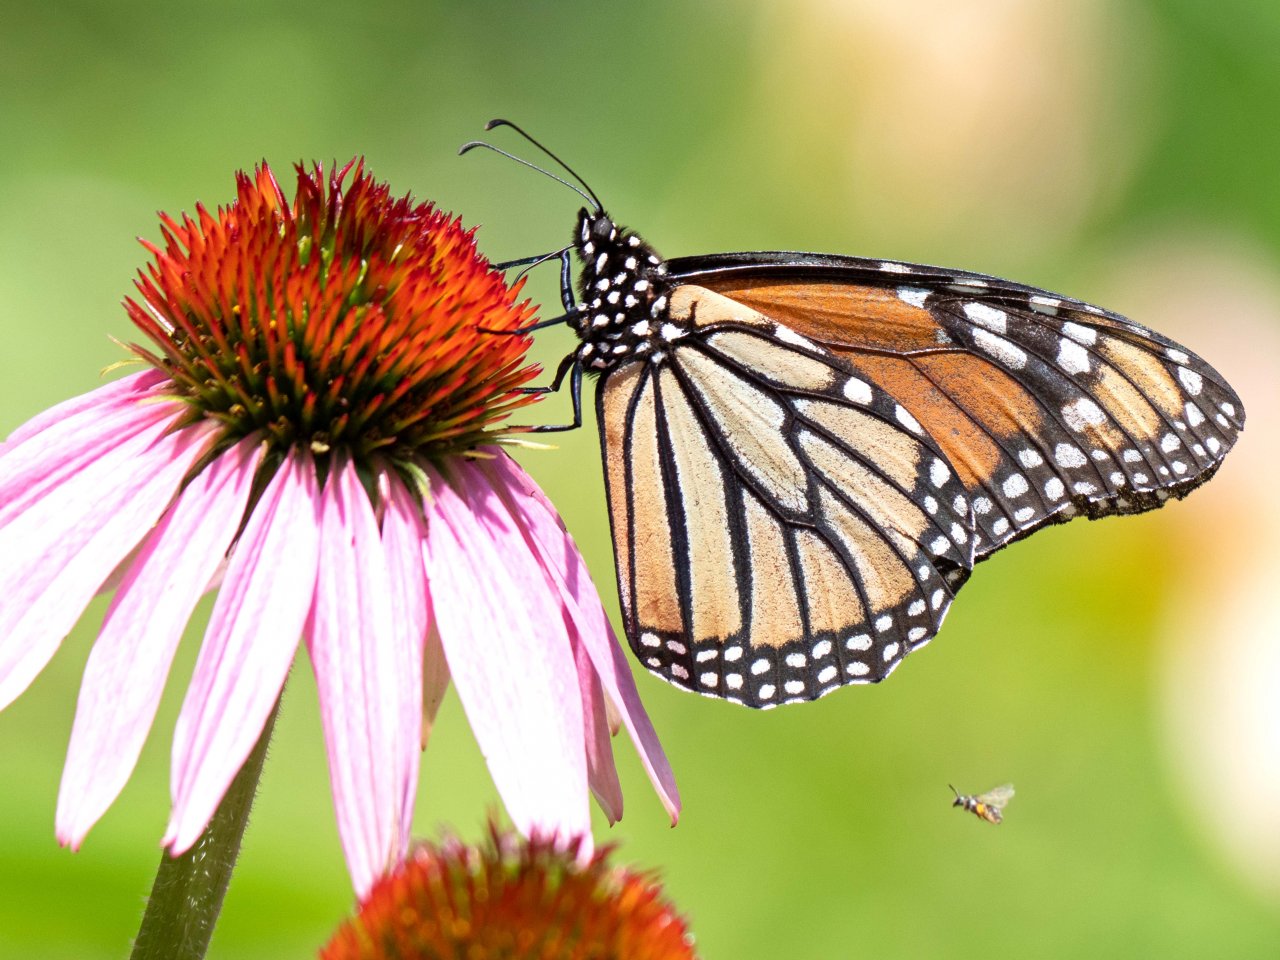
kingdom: Animalia
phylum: Arthropoda
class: Insecta
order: Lepidoptera
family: Nymphalidae
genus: Danaus
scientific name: Danaus plexippus
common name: Monarch
